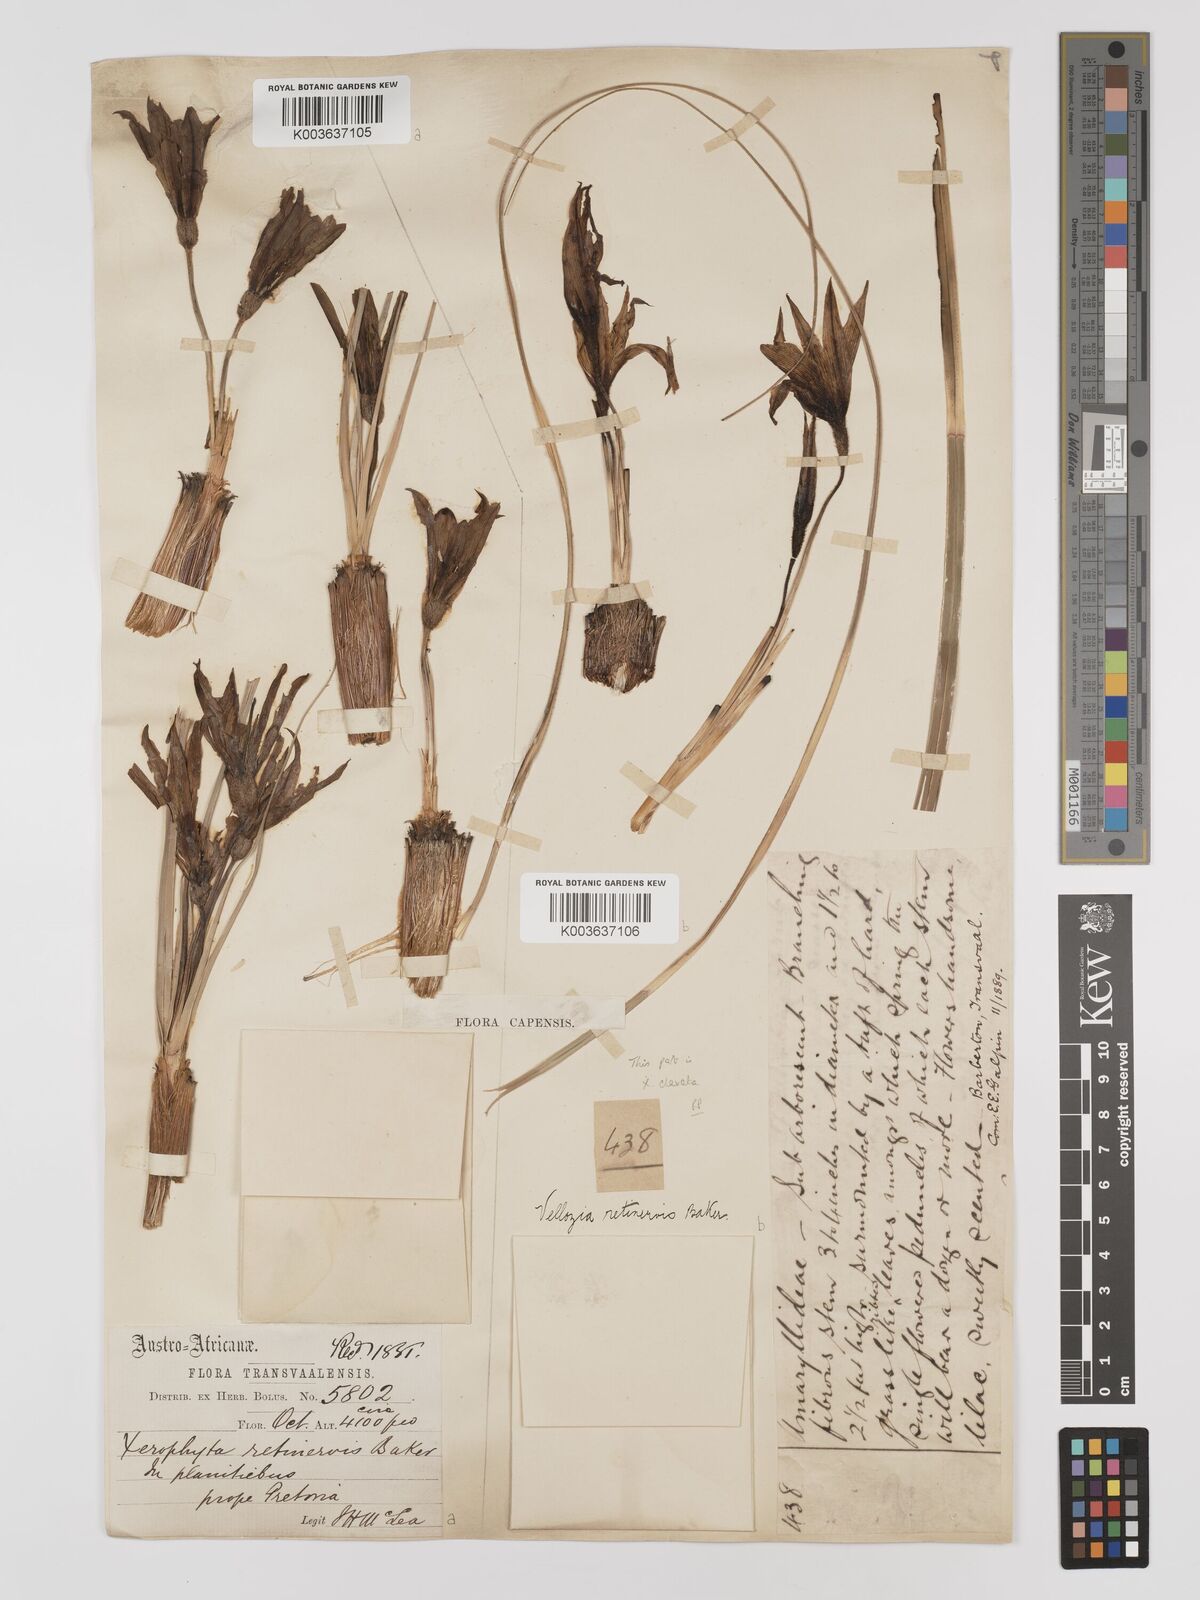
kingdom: Plantae
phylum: Tracheophyta
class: Liliopsida
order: Pandanales
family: Velloziaceae
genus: Xerophyta
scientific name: Xerophyta retinervis
